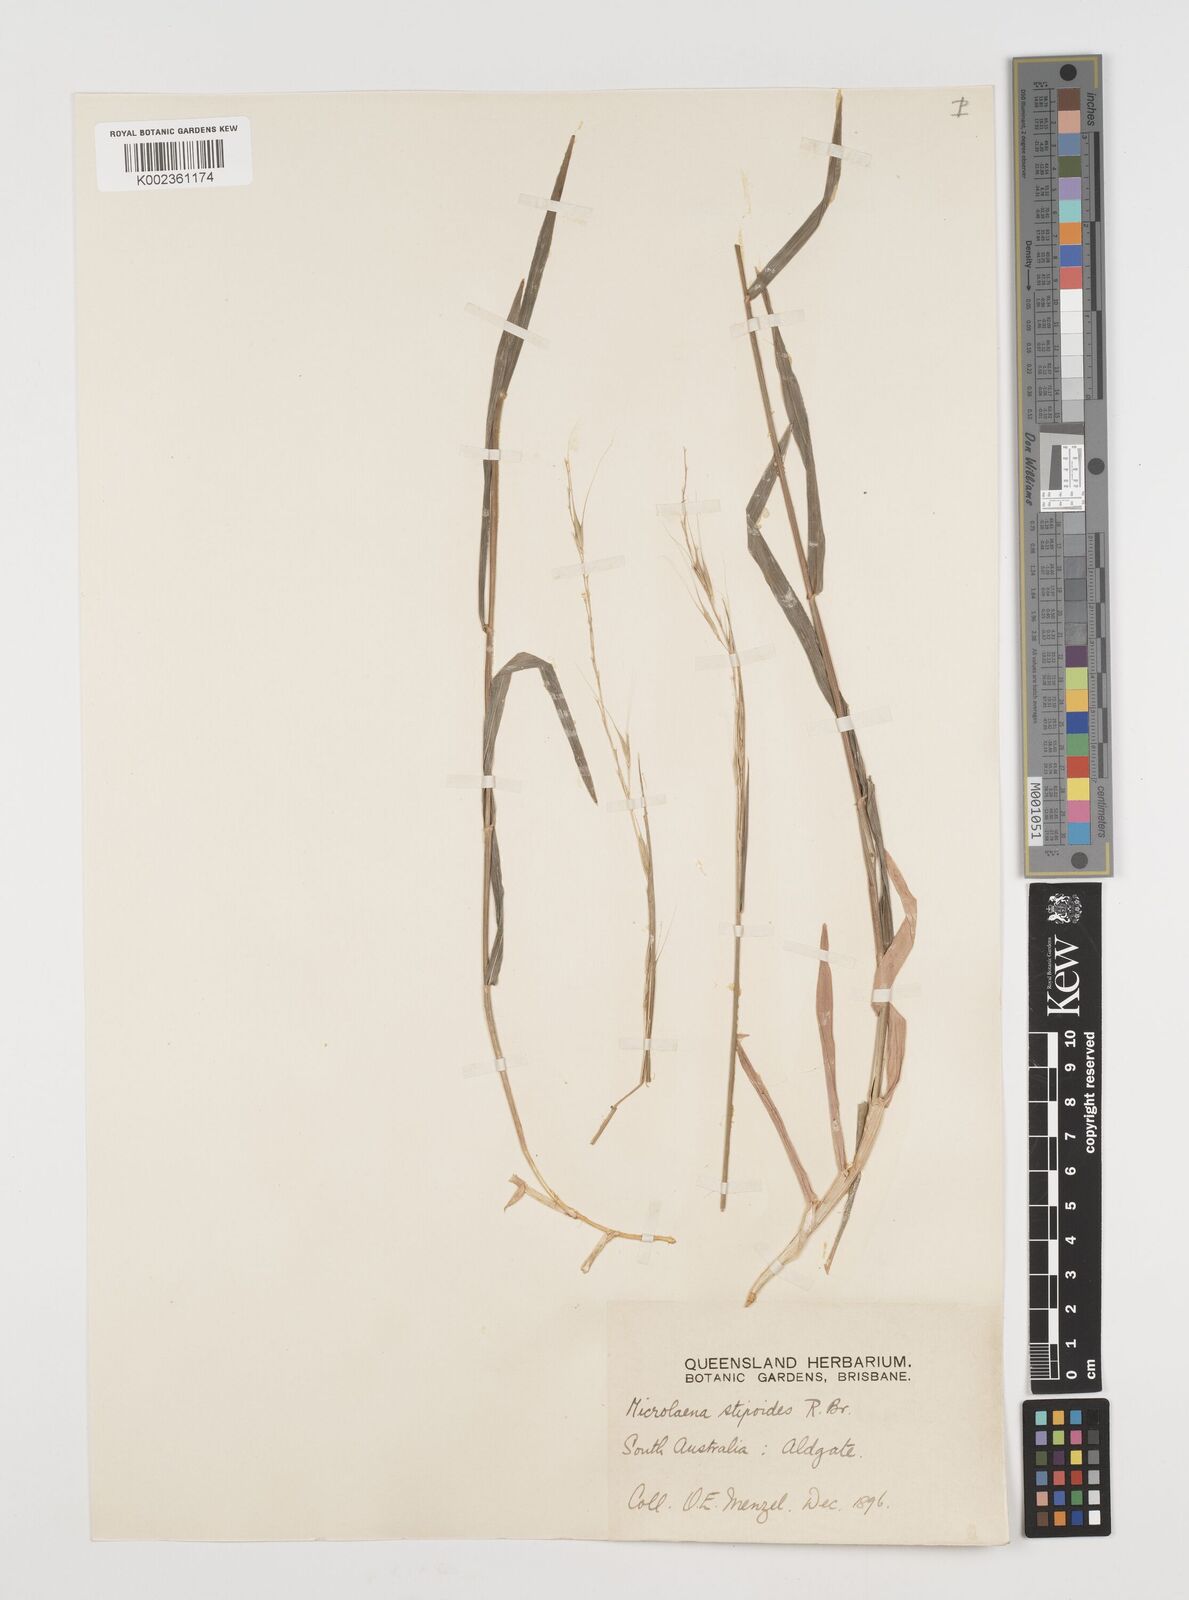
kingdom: Plantae
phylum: Tracheophyta
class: Liliopsida
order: Poales
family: Poaceae
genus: Microlaena
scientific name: Microlaena stipoides
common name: Meadow ricegrass
